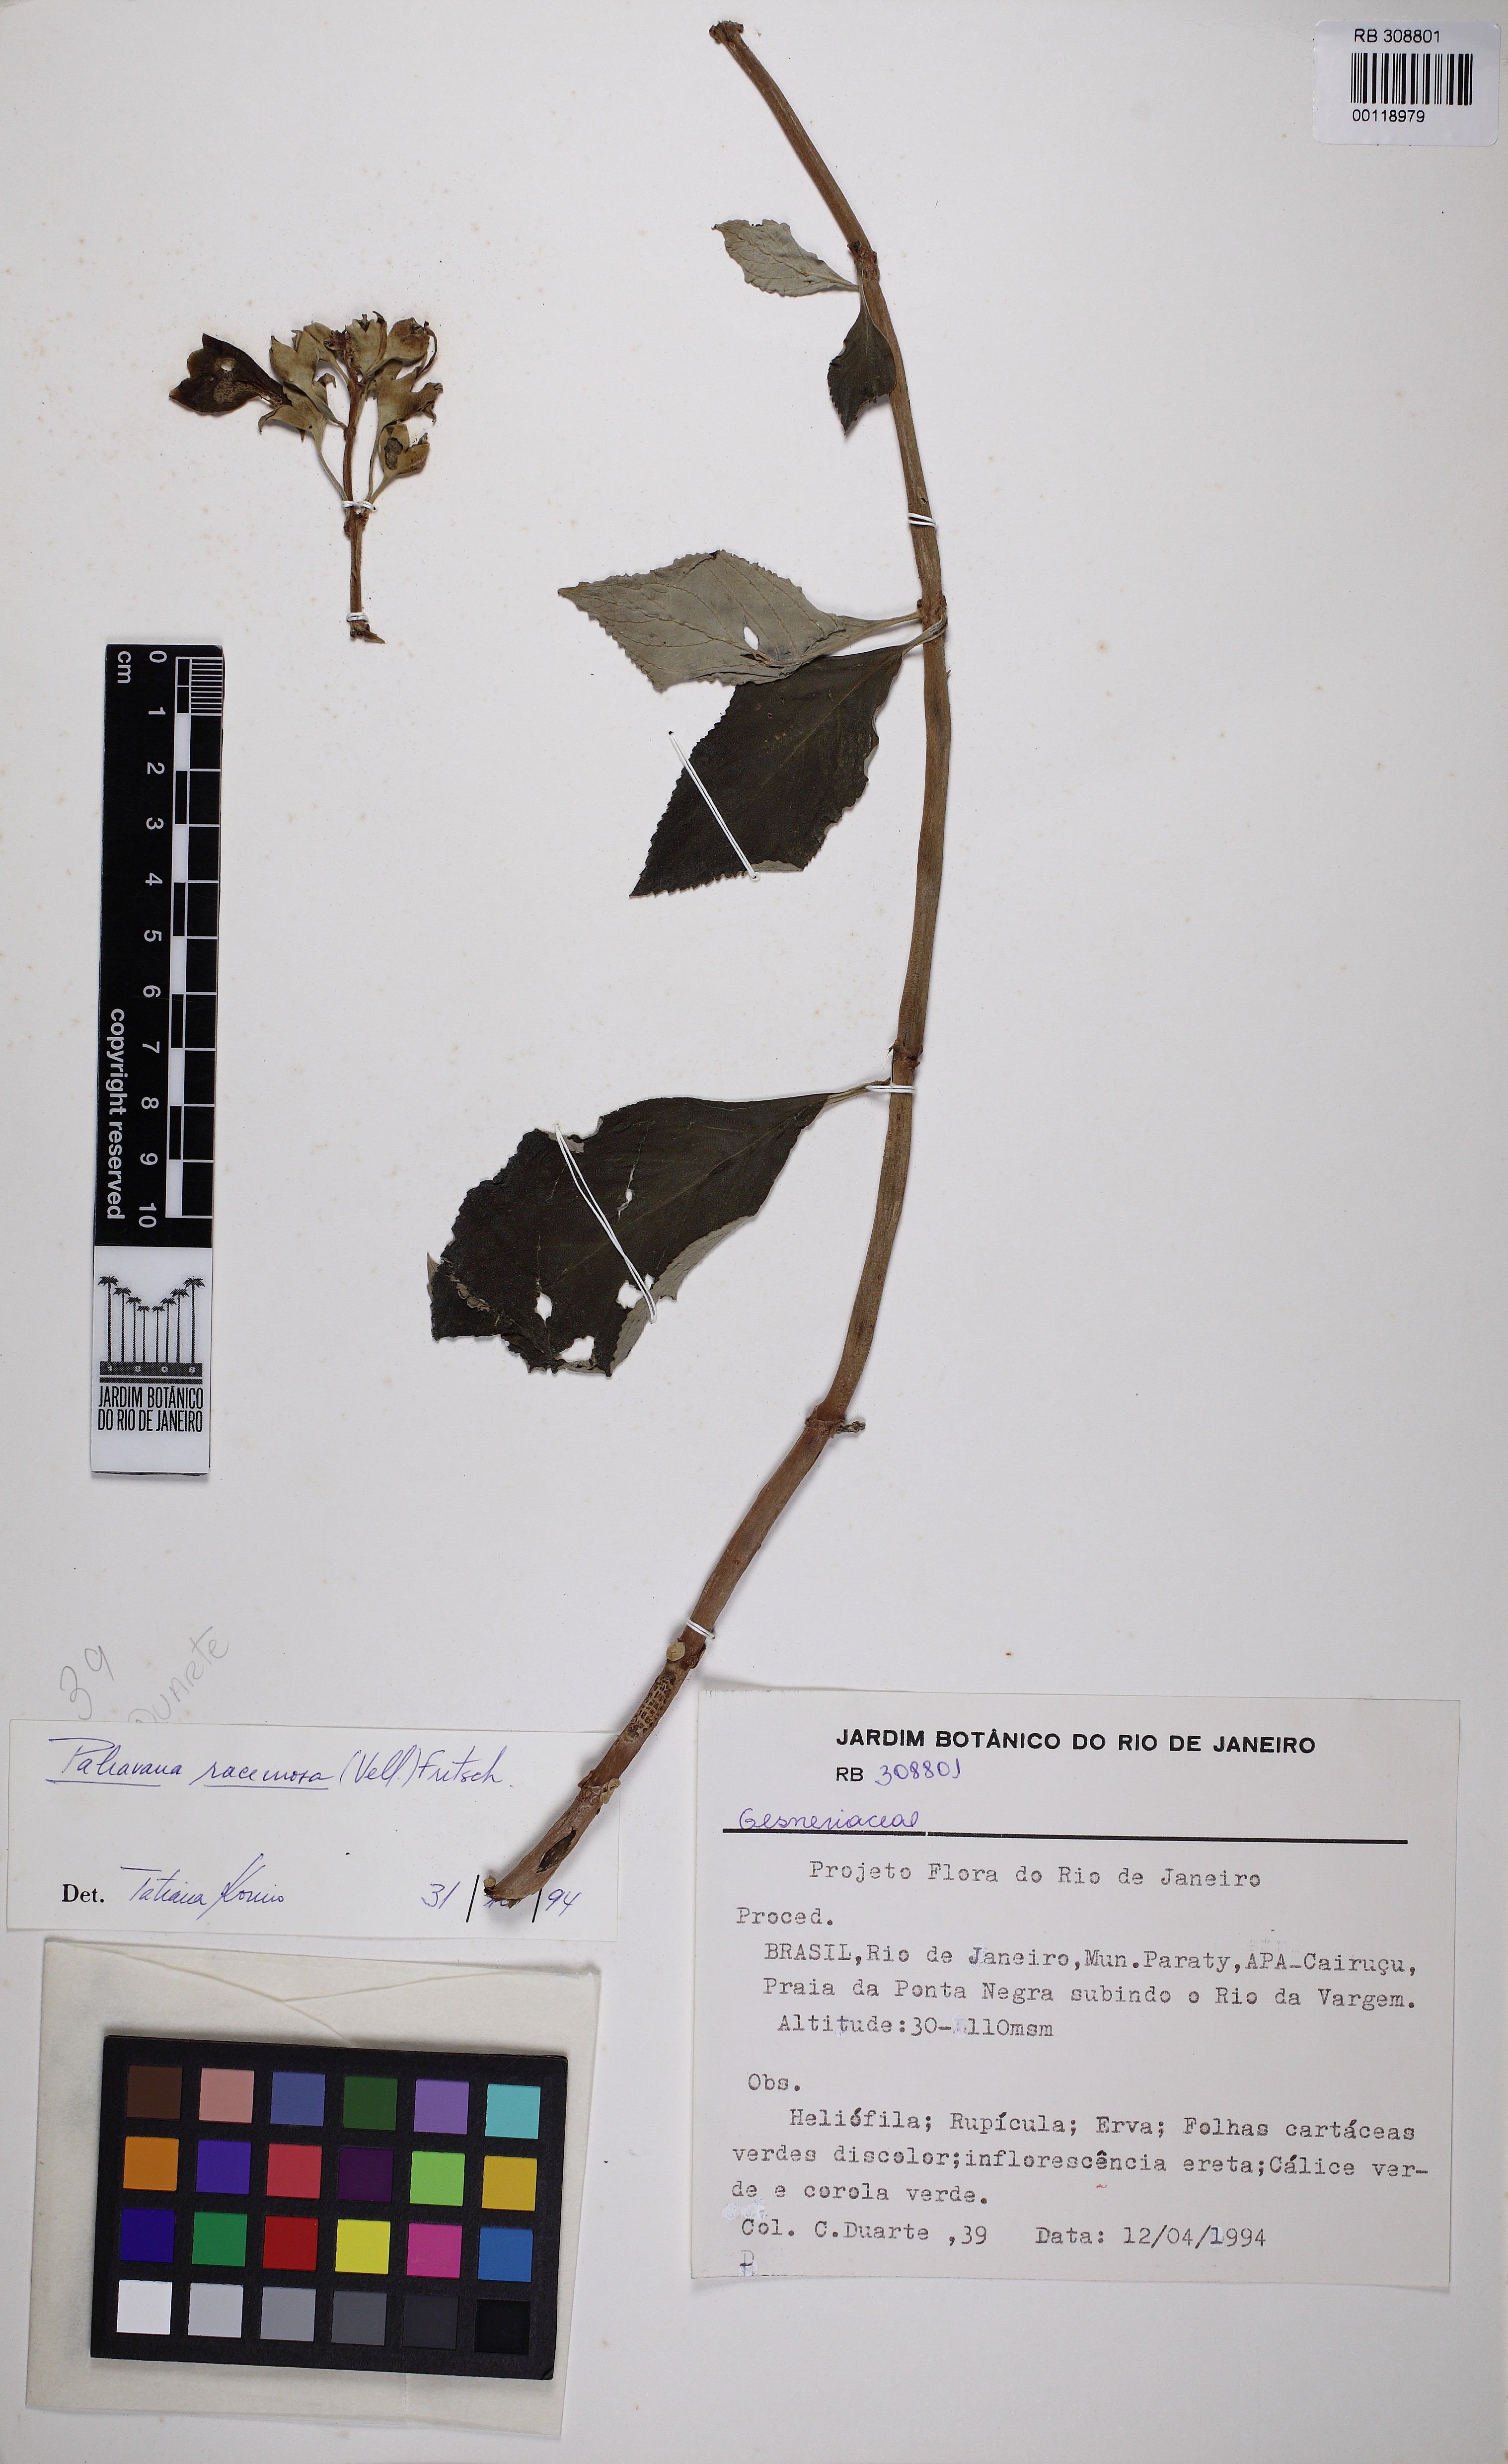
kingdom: Plantae
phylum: Tracheophyta
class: Magnoliopsida
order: Lamiales
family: Gesneriaceae
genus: Paliavana
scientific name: Paliavana prasinata
